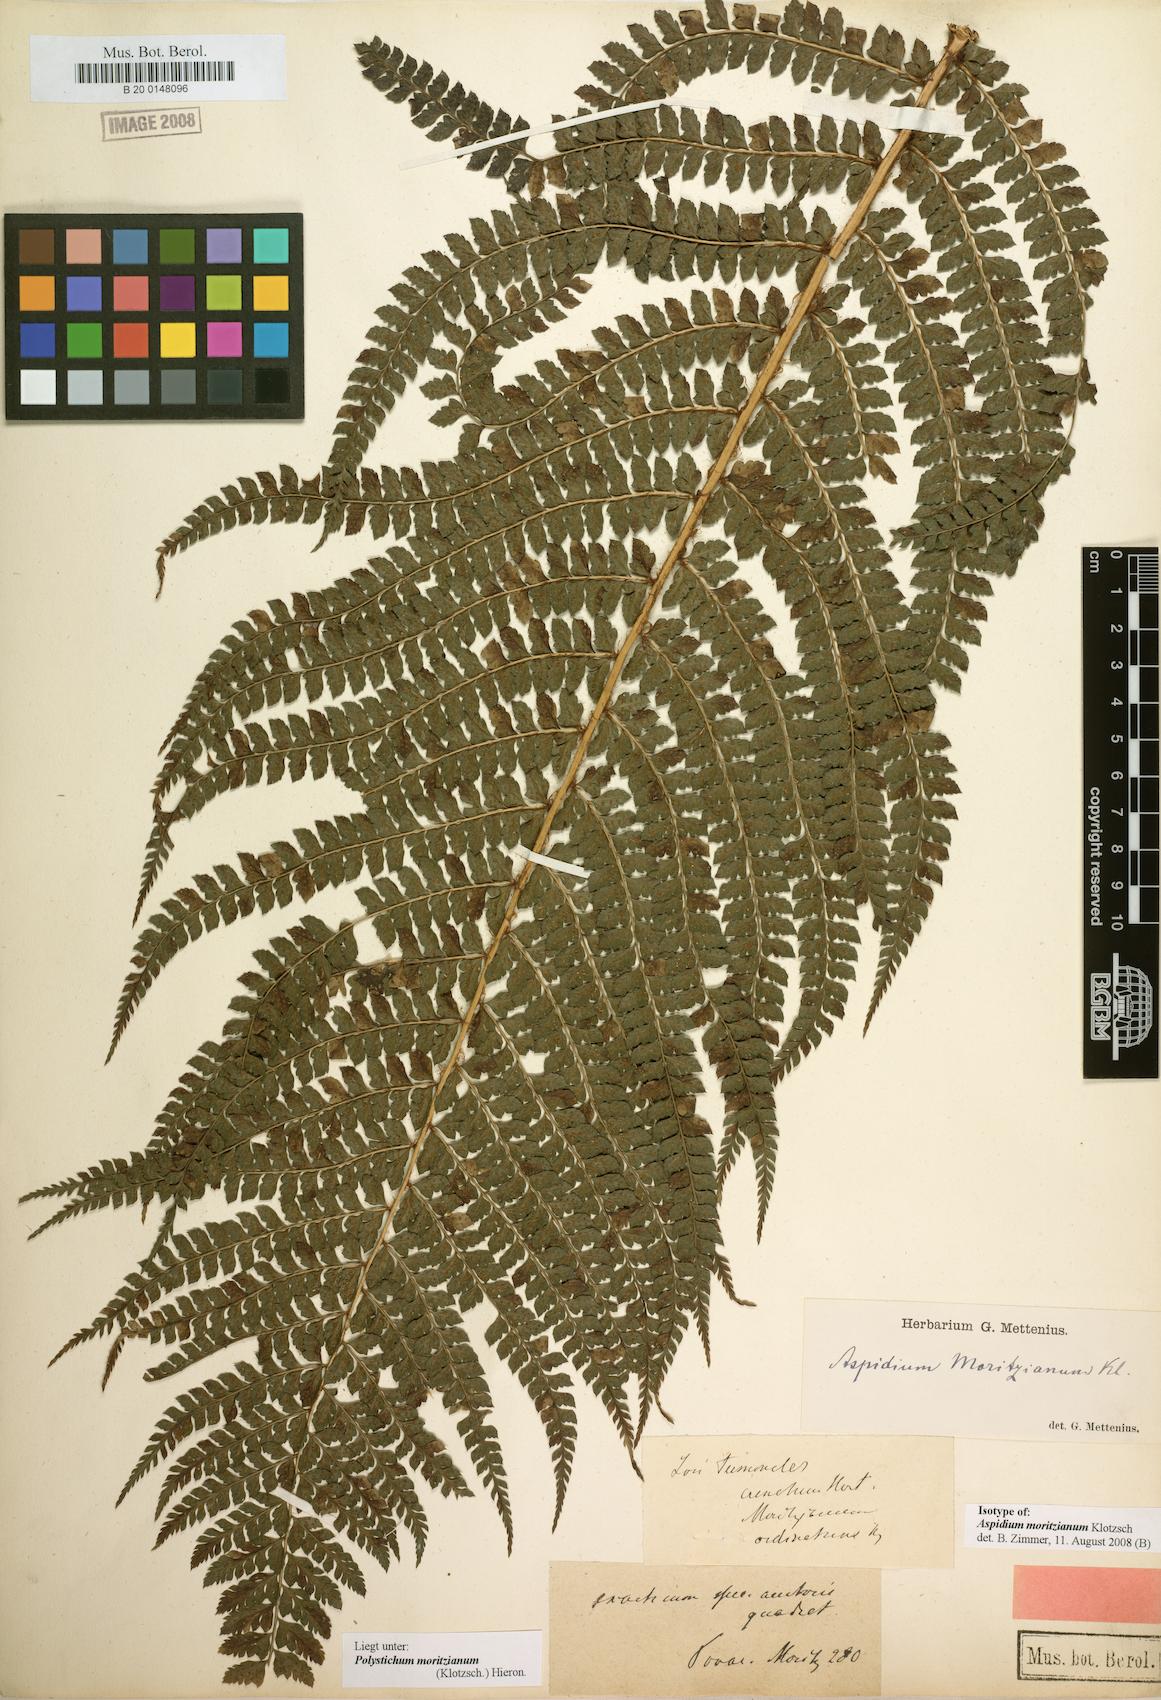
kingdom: Plantae
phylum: Tracheophyta
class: Polypodiopsida
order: Polypodiales
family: Dryopteridaceae
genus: Polystichum
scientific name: Polystichum muricatum
